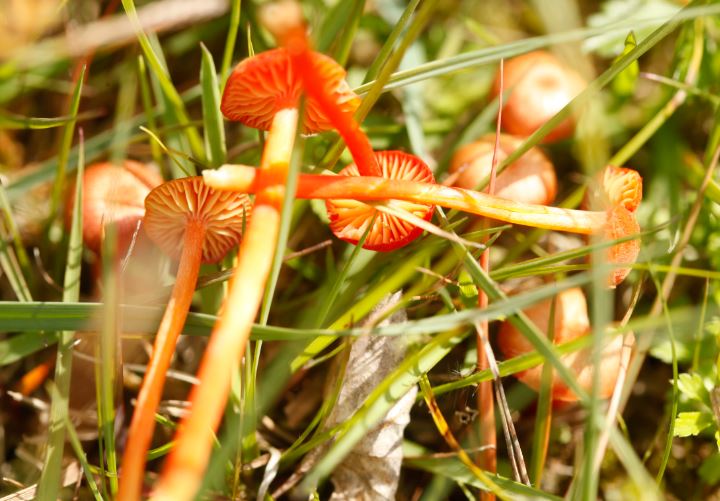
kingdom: Fungi
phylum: Basidiomycota
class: Agaricomycetes
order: Agaricales
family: Hygrophoraceae
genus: Hygrocybe
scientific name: Hygrocybe helobia
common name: hvidløgs-vokshat
